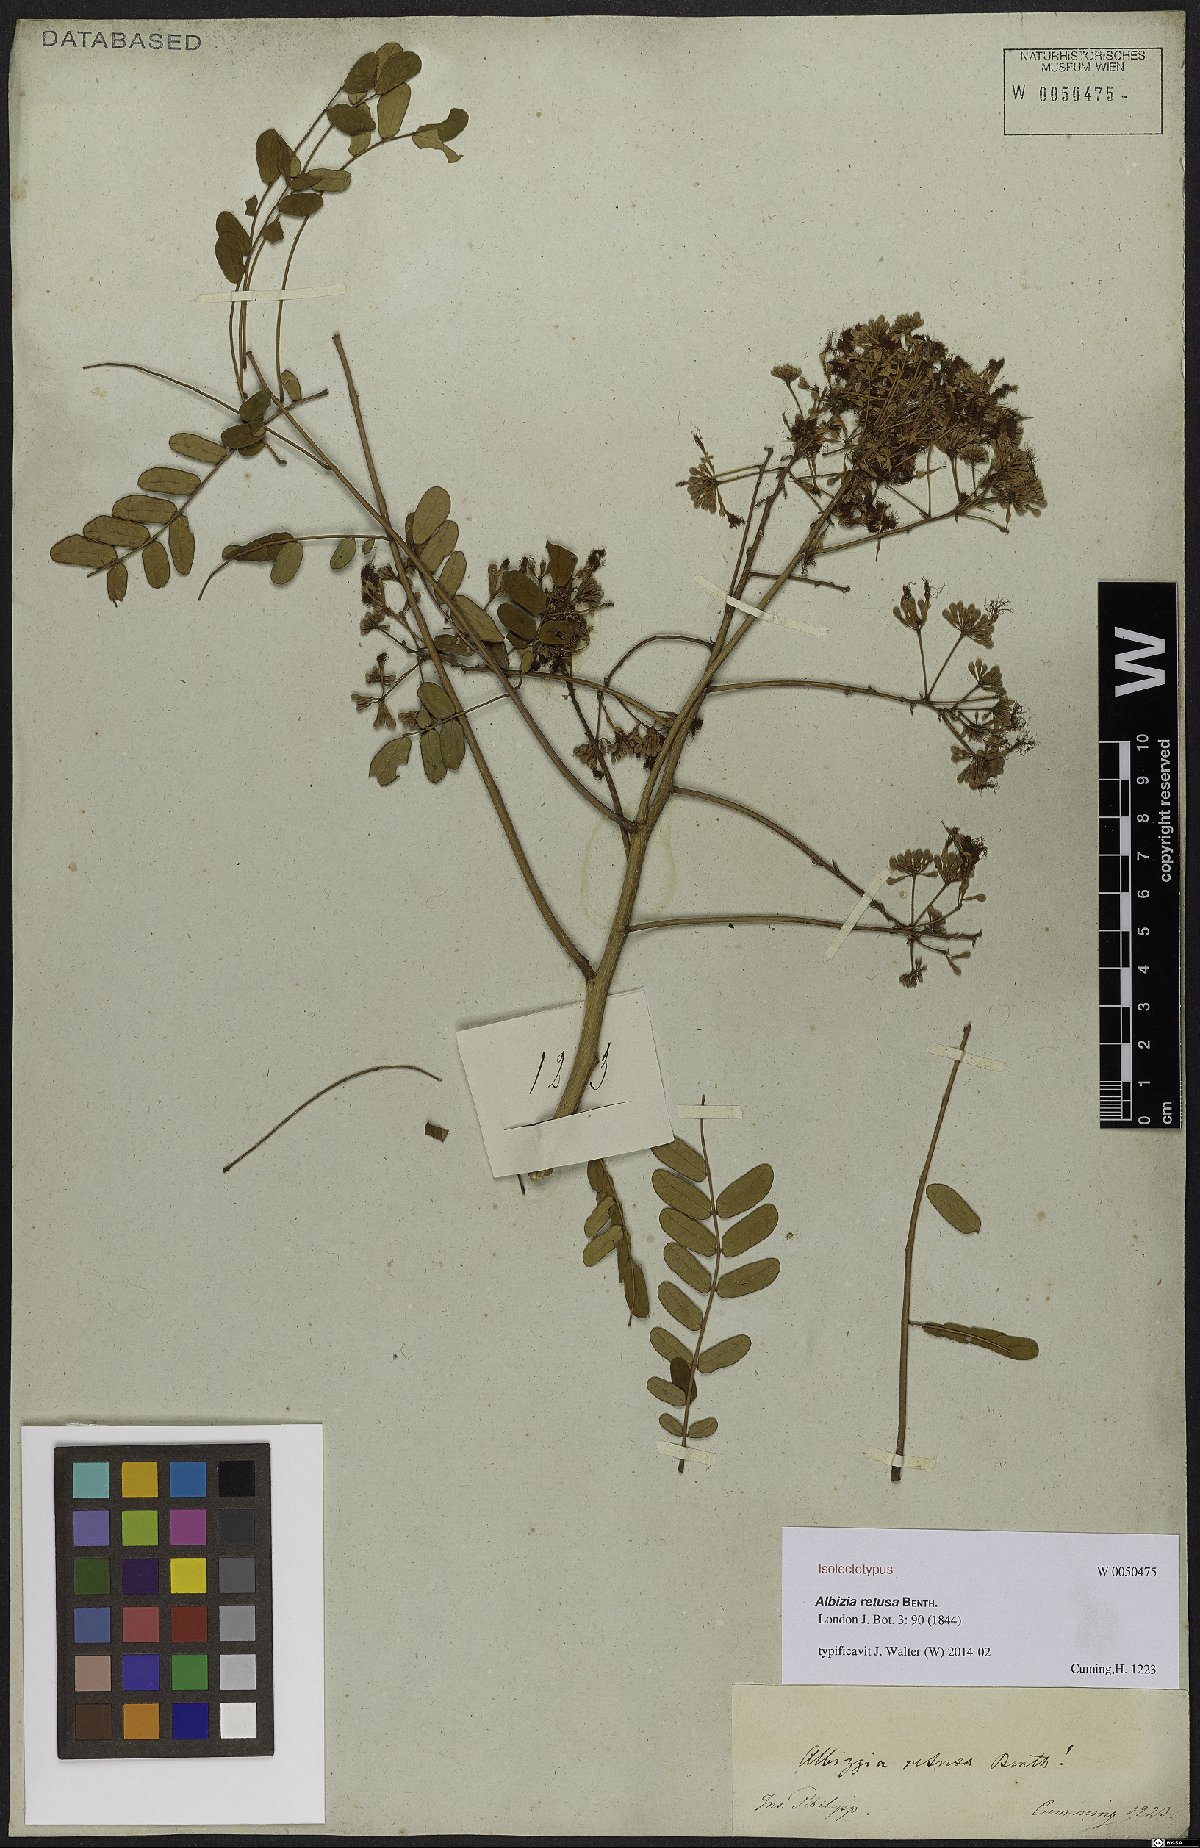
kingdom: Plantae
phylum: Tracheophyta
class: Magnoliopsida
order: Fabales
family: Fabaceae
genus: Albizia
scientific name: Albizia retusa
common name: Sea albizia
